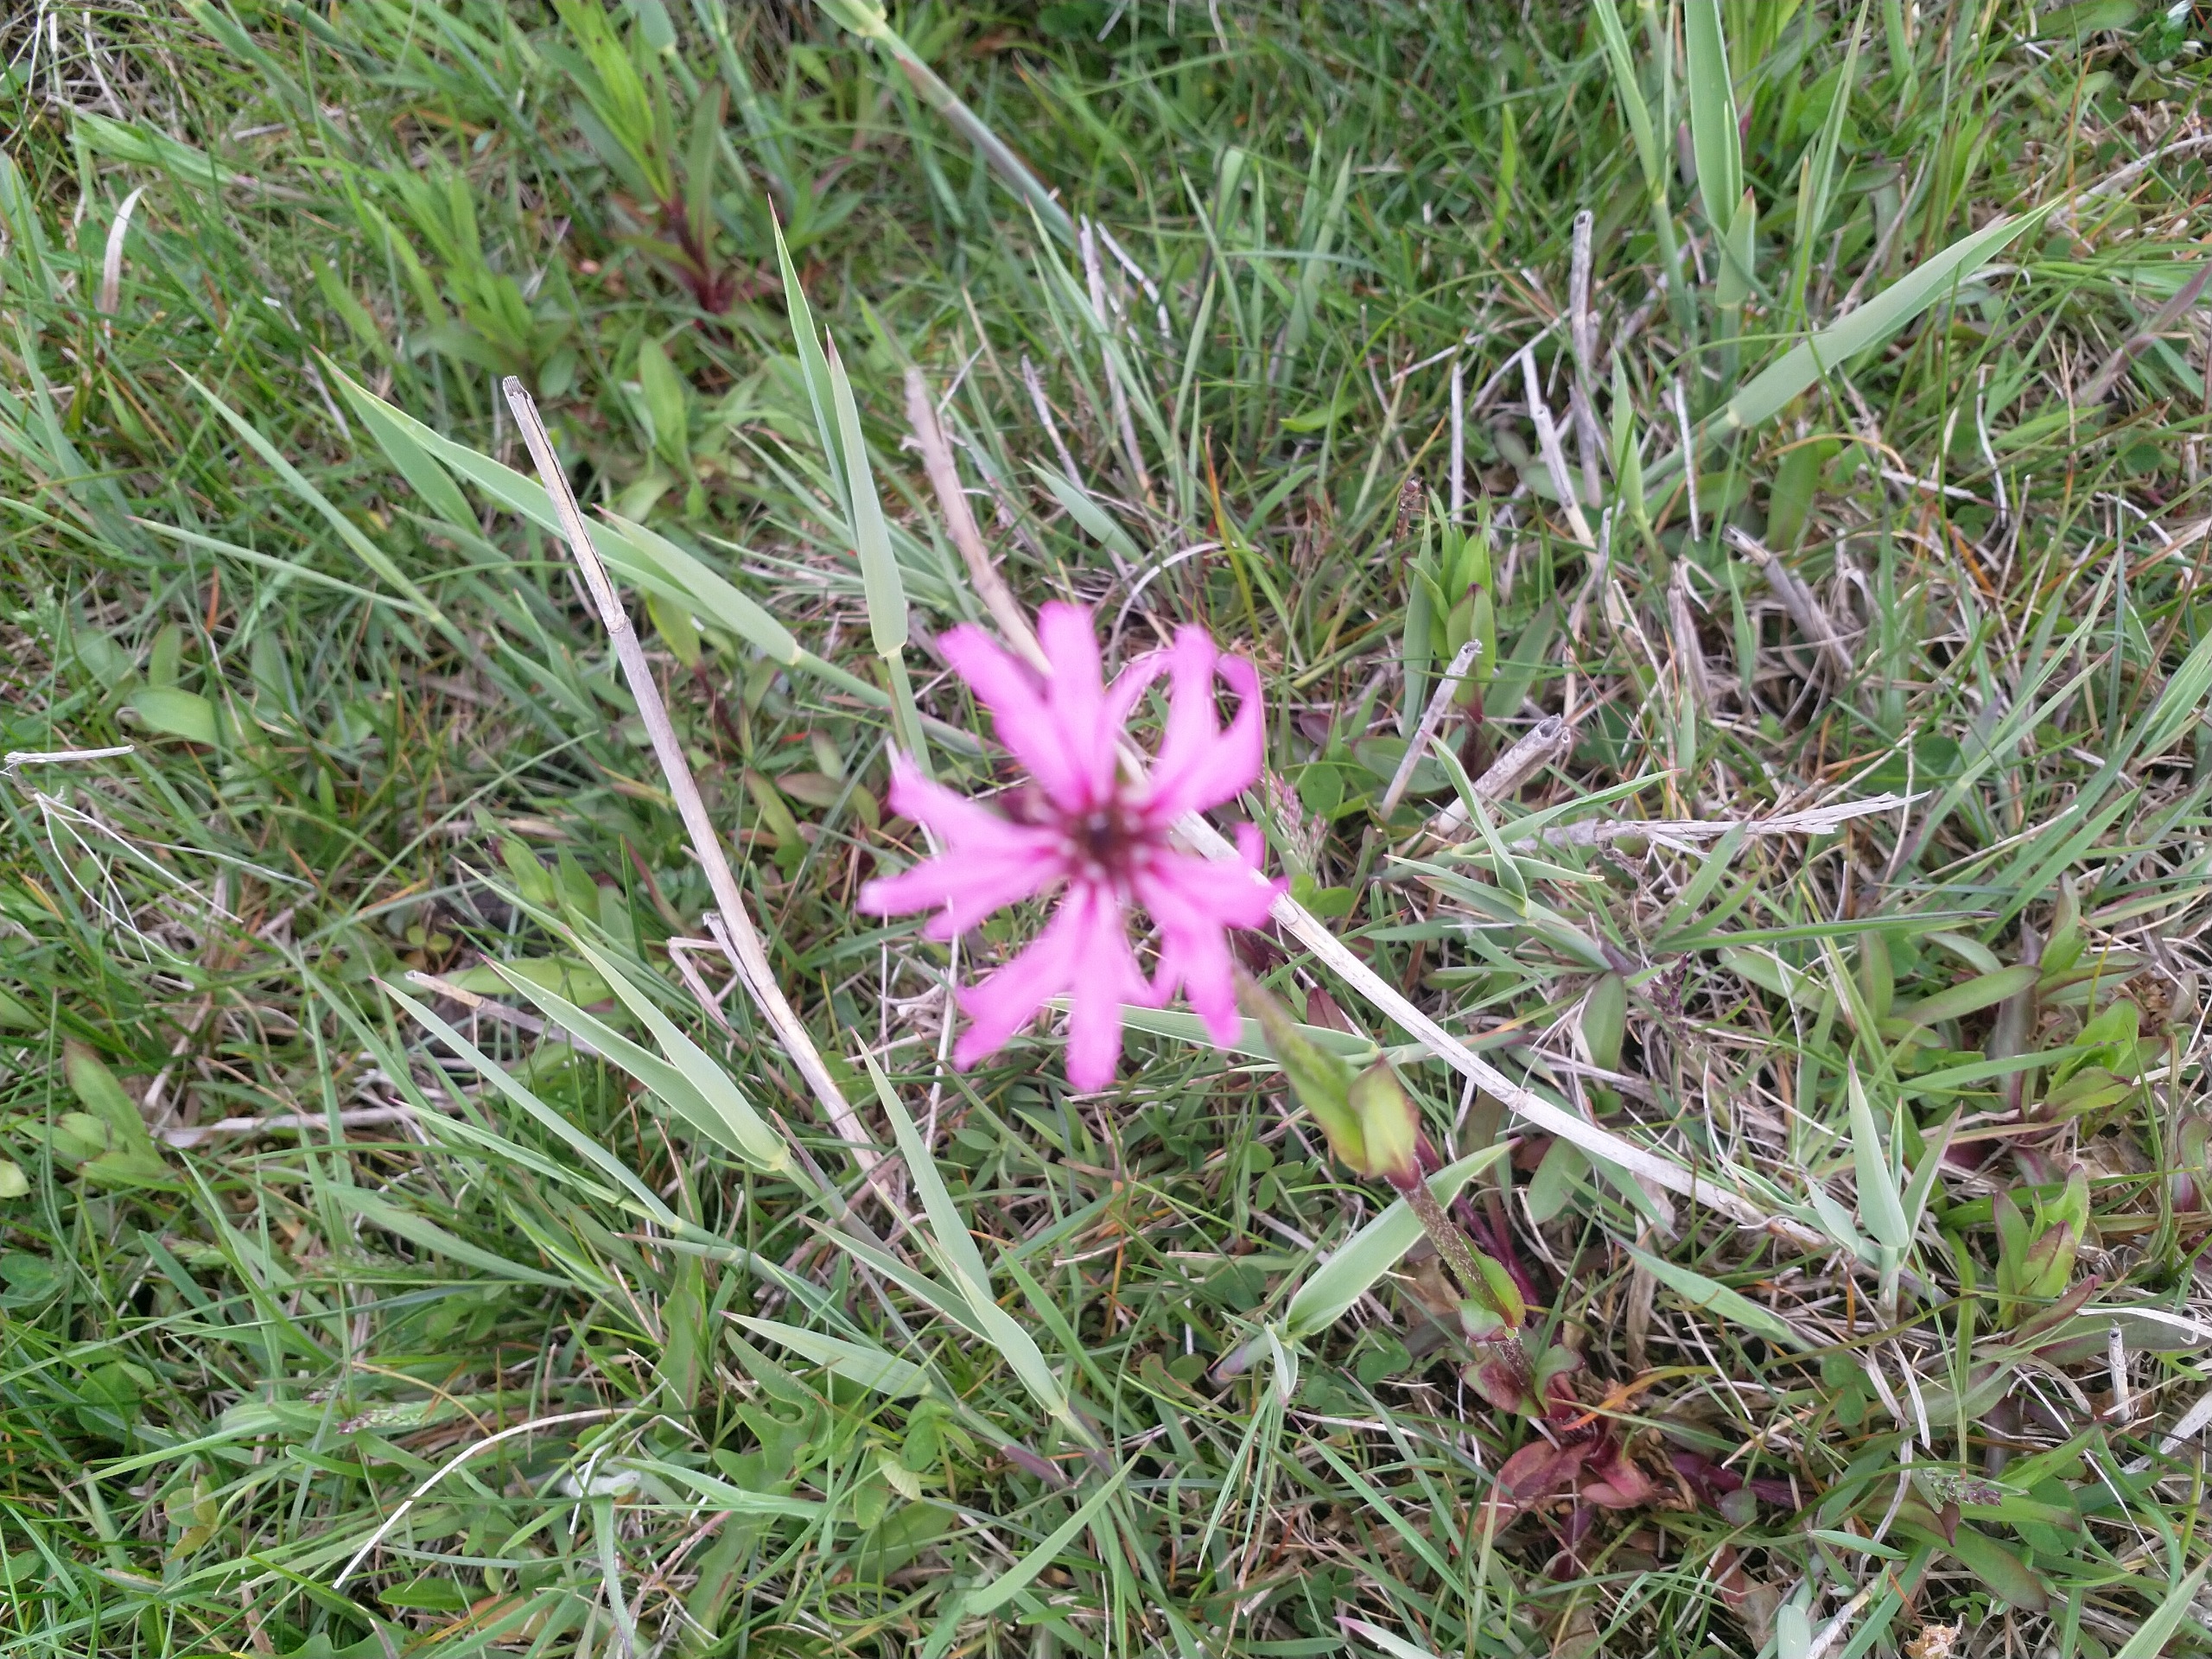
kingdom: Plantae
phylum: Tracheophyta
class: Magnoliopsida
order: Caryophyllales
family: Caryophyllaceae
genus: Silene
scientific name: Silene flos-cuculi
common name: Trævlekrone
